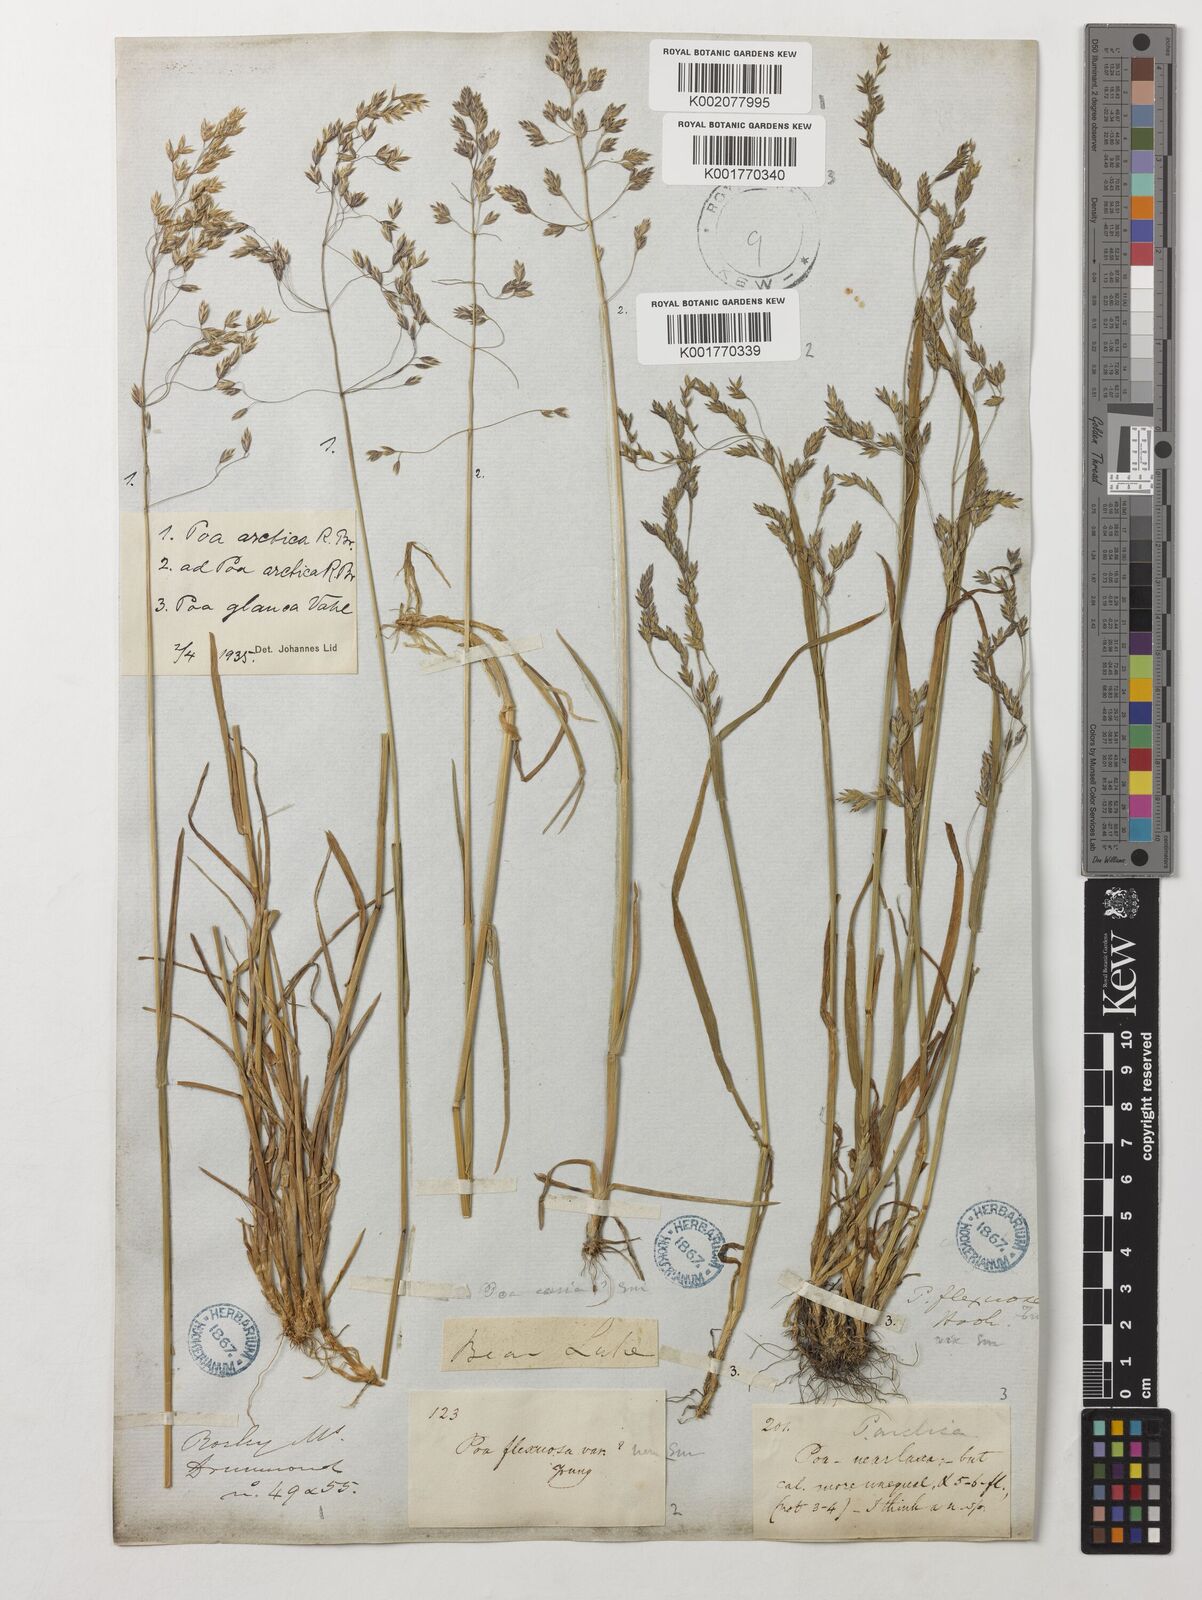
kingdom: Plantae
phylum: Tracheophyta
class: Liliopsida
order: Poales
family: Poaceae
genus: Poa
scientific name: Poa arctica
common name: Arctic bluegrass
